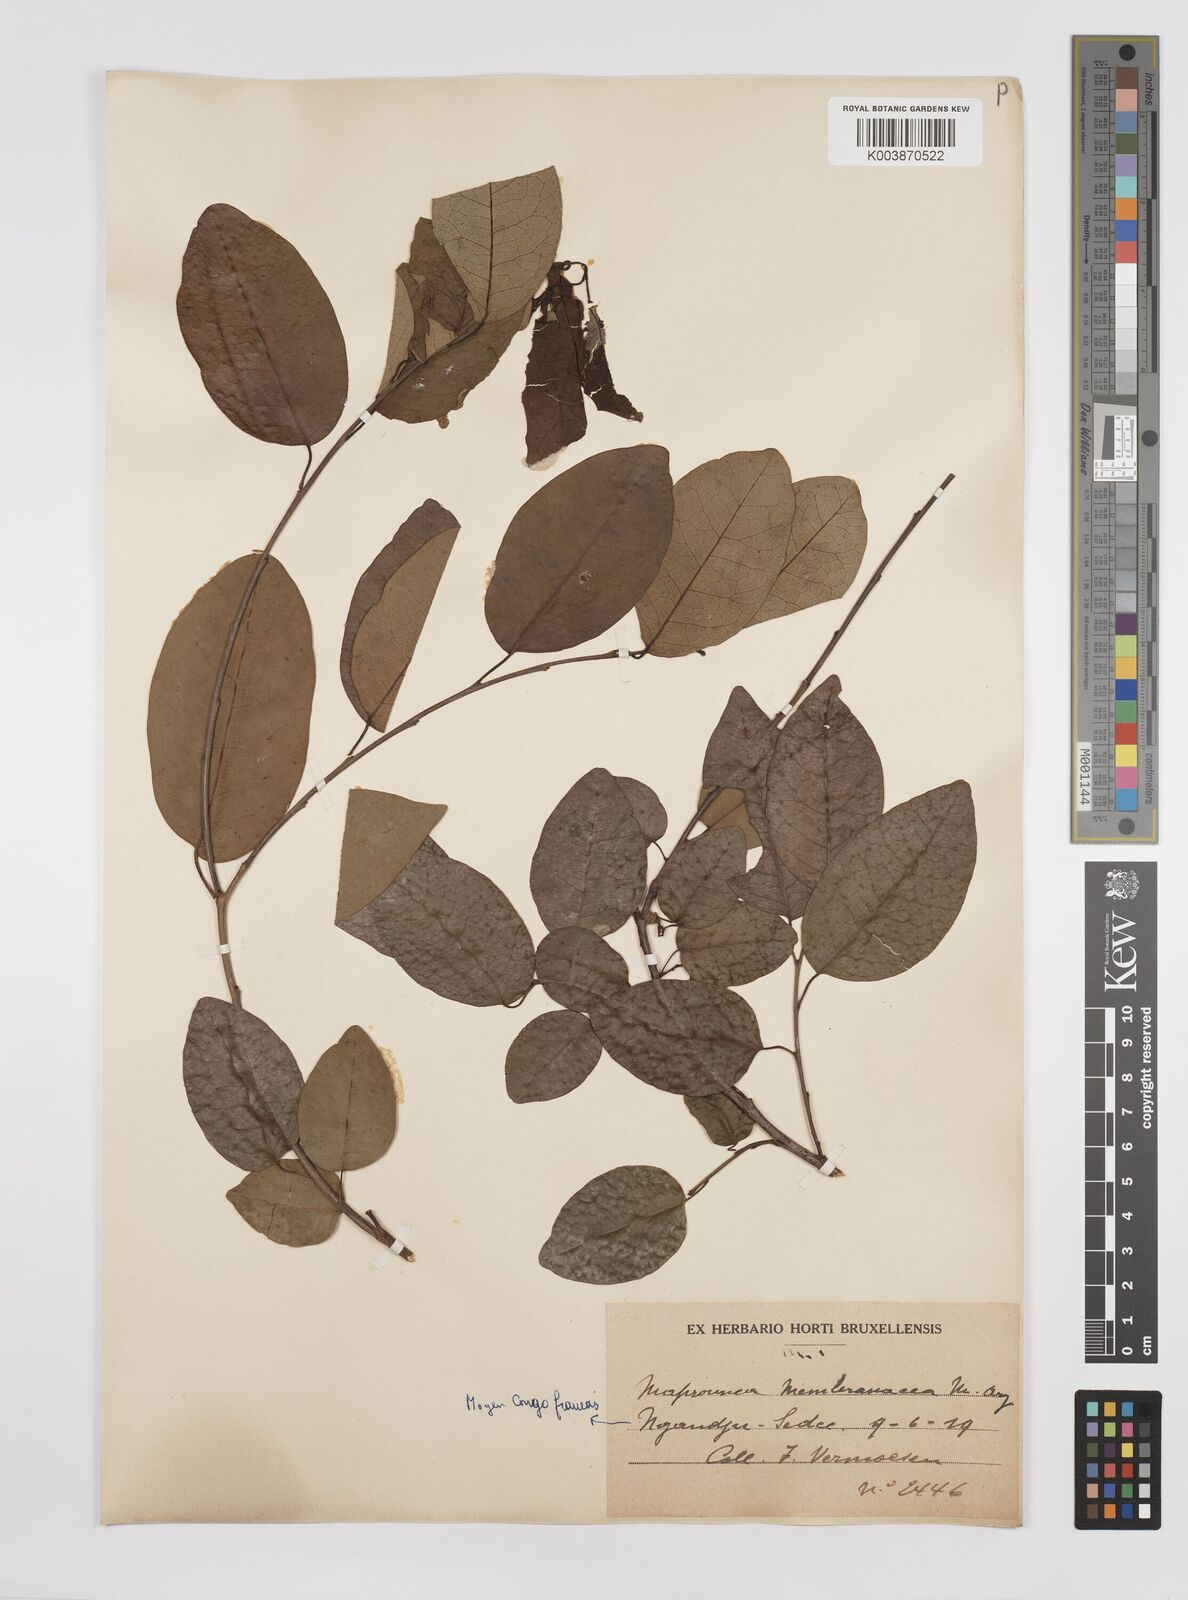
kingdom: Plantae
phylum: Tracheophyta
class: Magnoliopsida
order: Malpighiales
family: Euphorbiaceae
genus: Maprounea
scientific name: Maprounea membranacea
